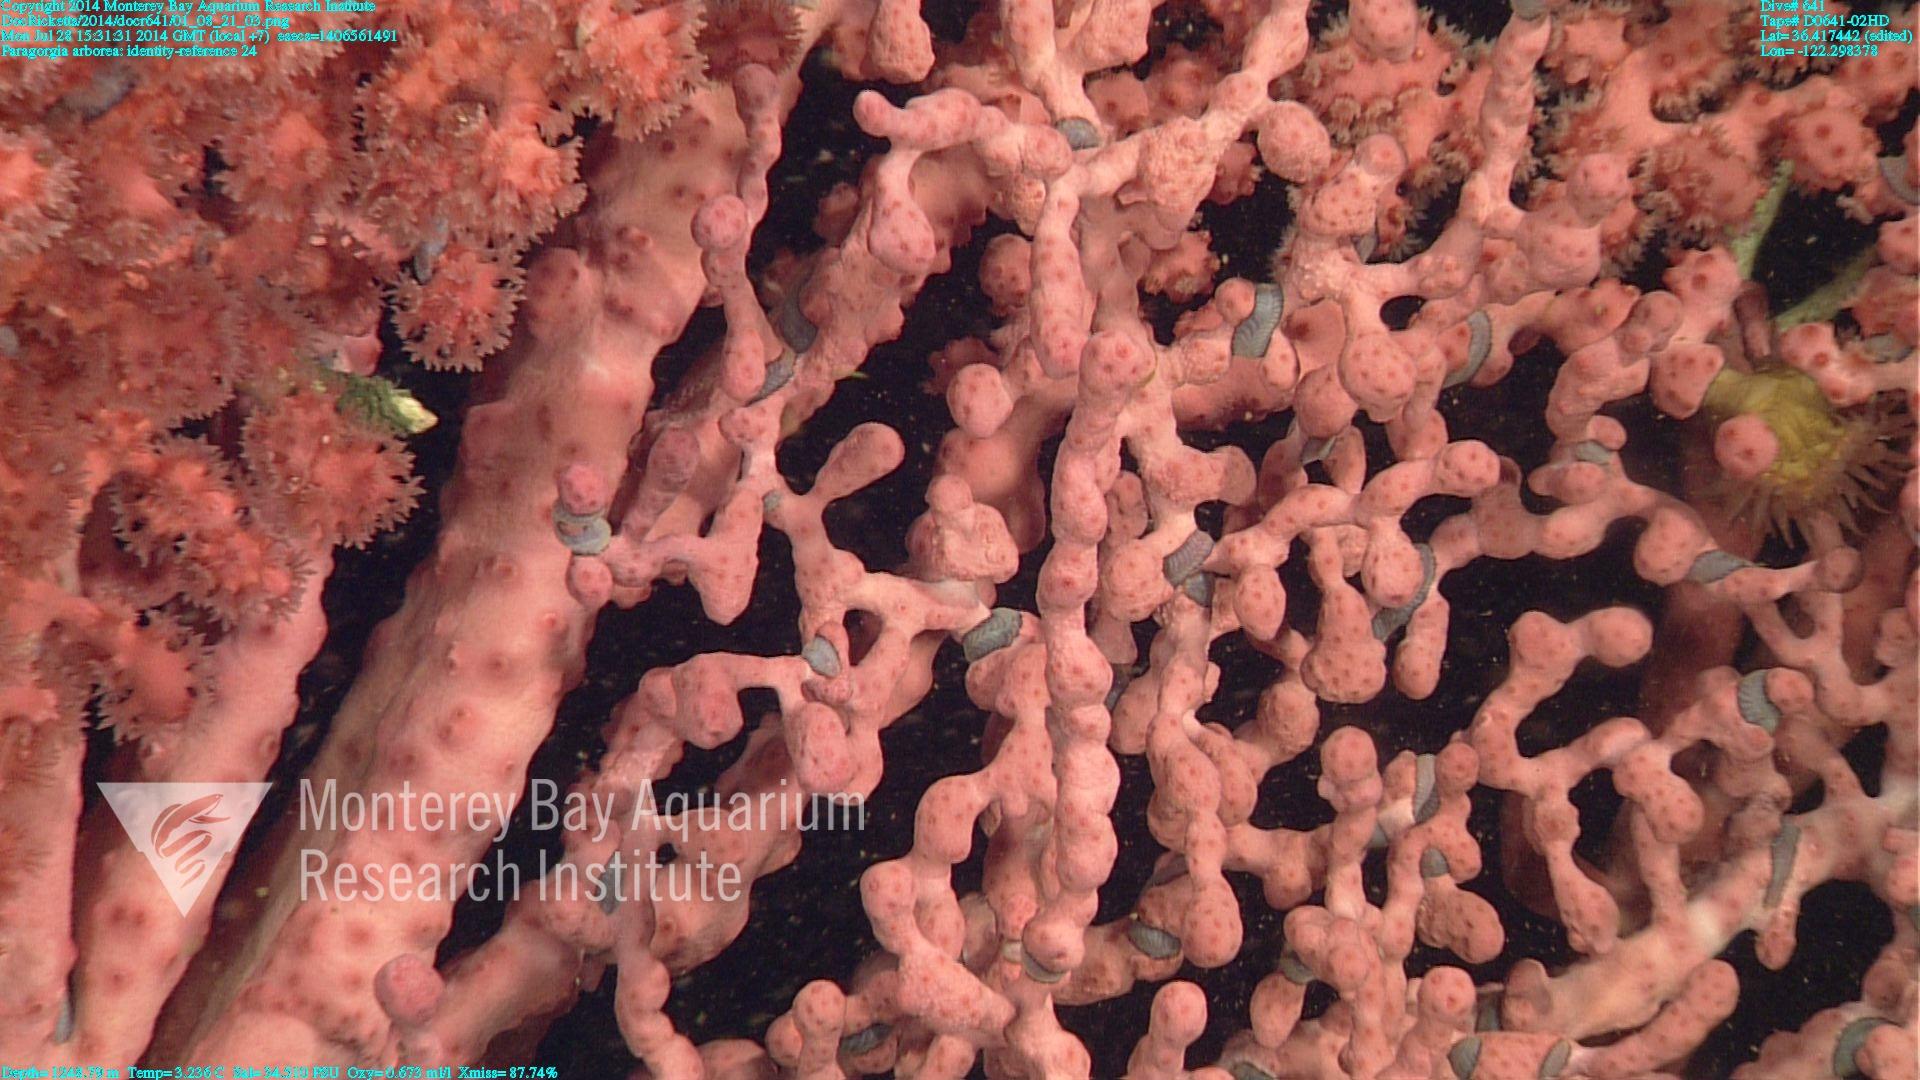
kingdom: Animalia
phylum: Cnidaria
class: Anthozoa
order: Scleralcyonacea
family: Coralliidae
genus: Paragorgia
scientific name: Paragorgia arborea
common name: Bubble gum coral
